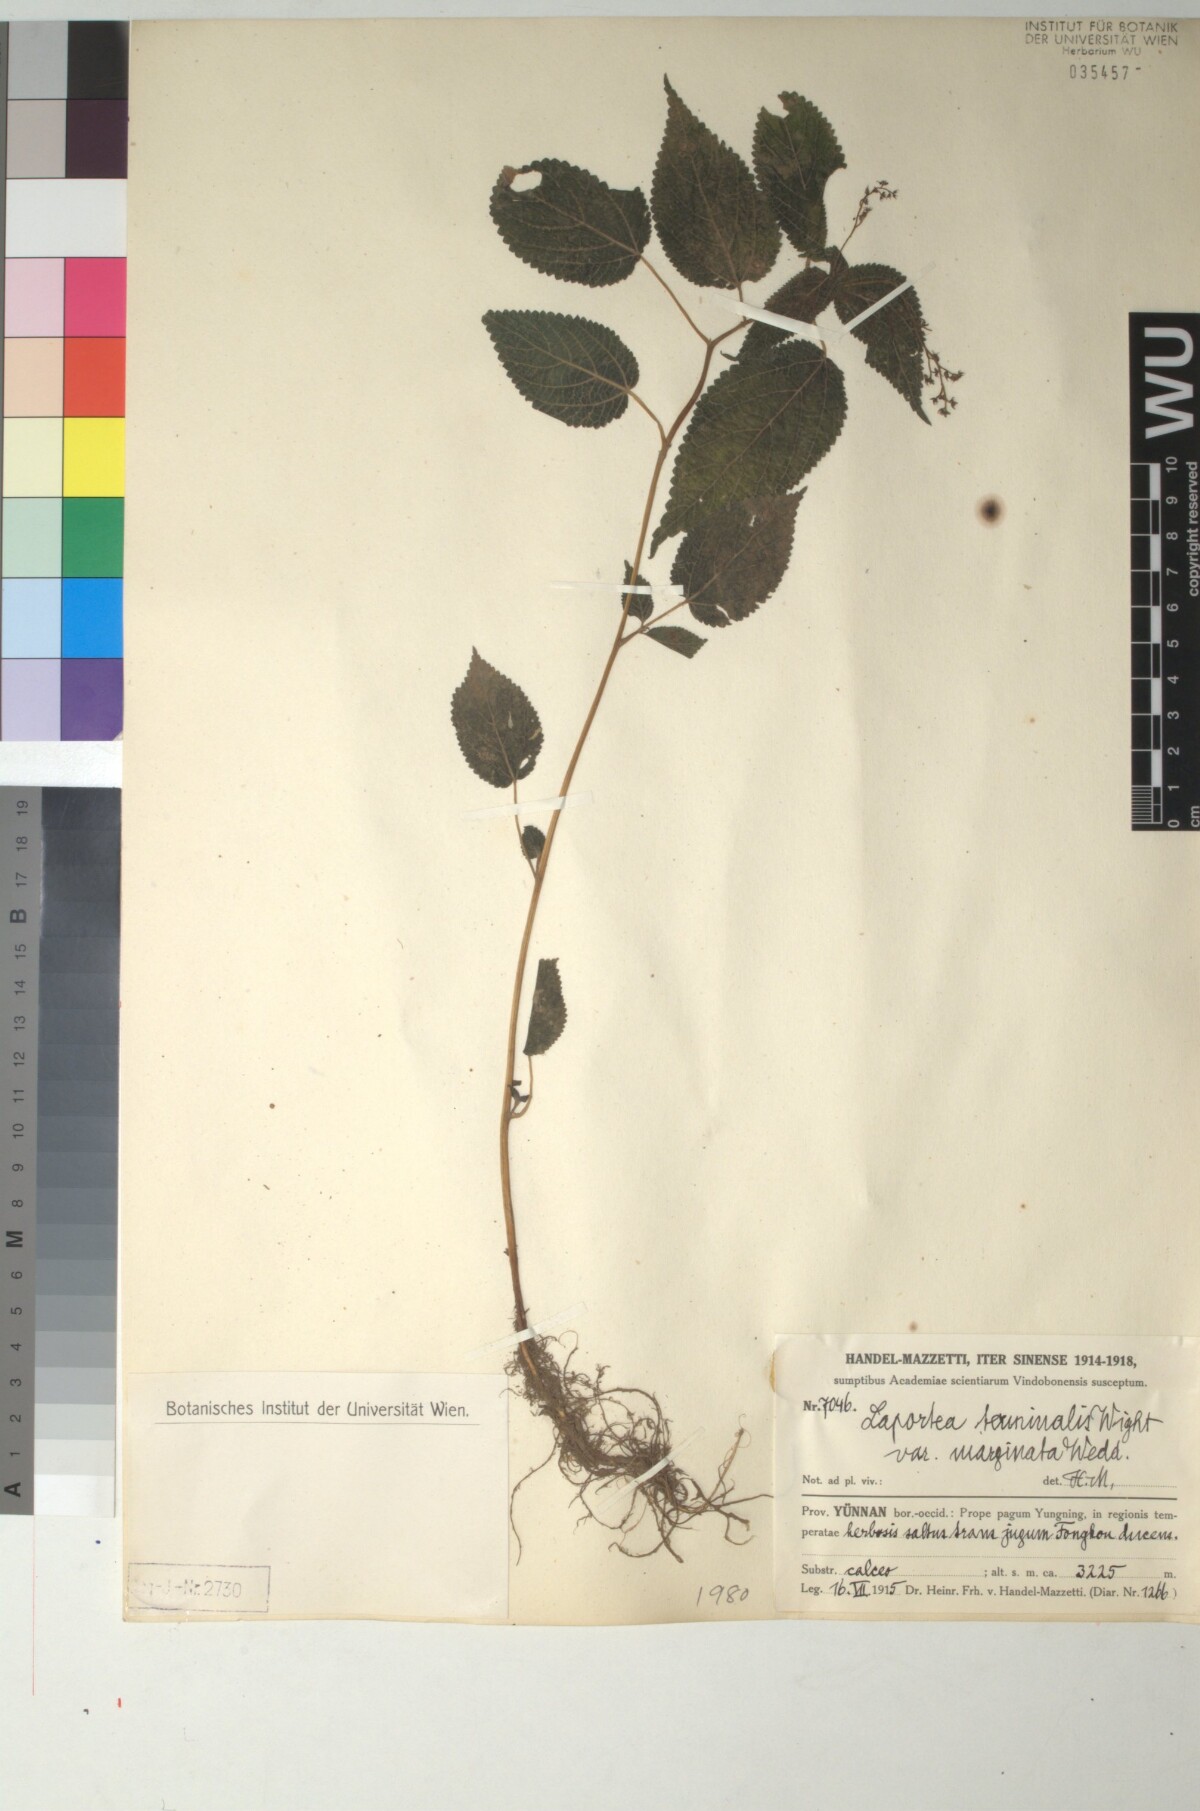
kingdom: Plantae
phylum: Tracheophyta
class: Magnoliopsida
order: Rosales
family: Urticaceae
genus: Laportea
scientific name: Laportea bulbifera
